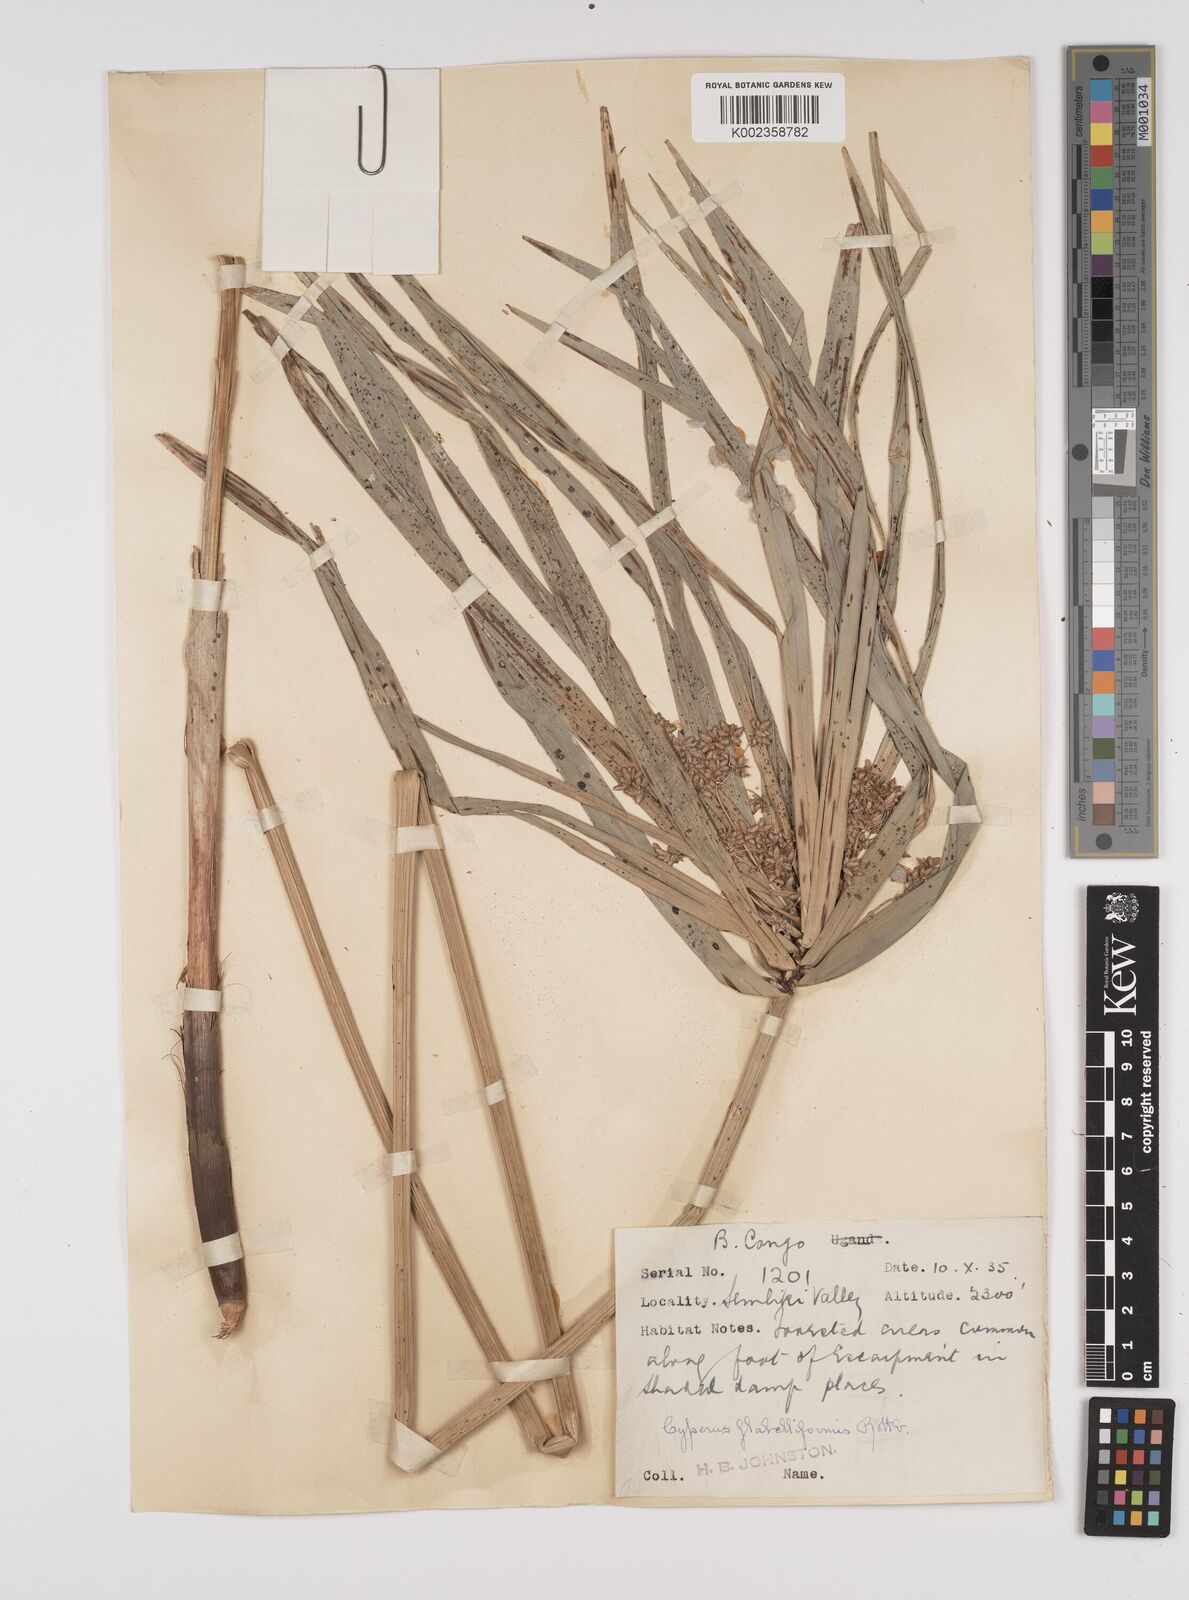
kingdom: Plantae
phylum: Tracheophyta
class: Liliopsida
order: Poales
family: Cyperaceae
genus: Cyperus
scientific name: Cyperus alternifolius
